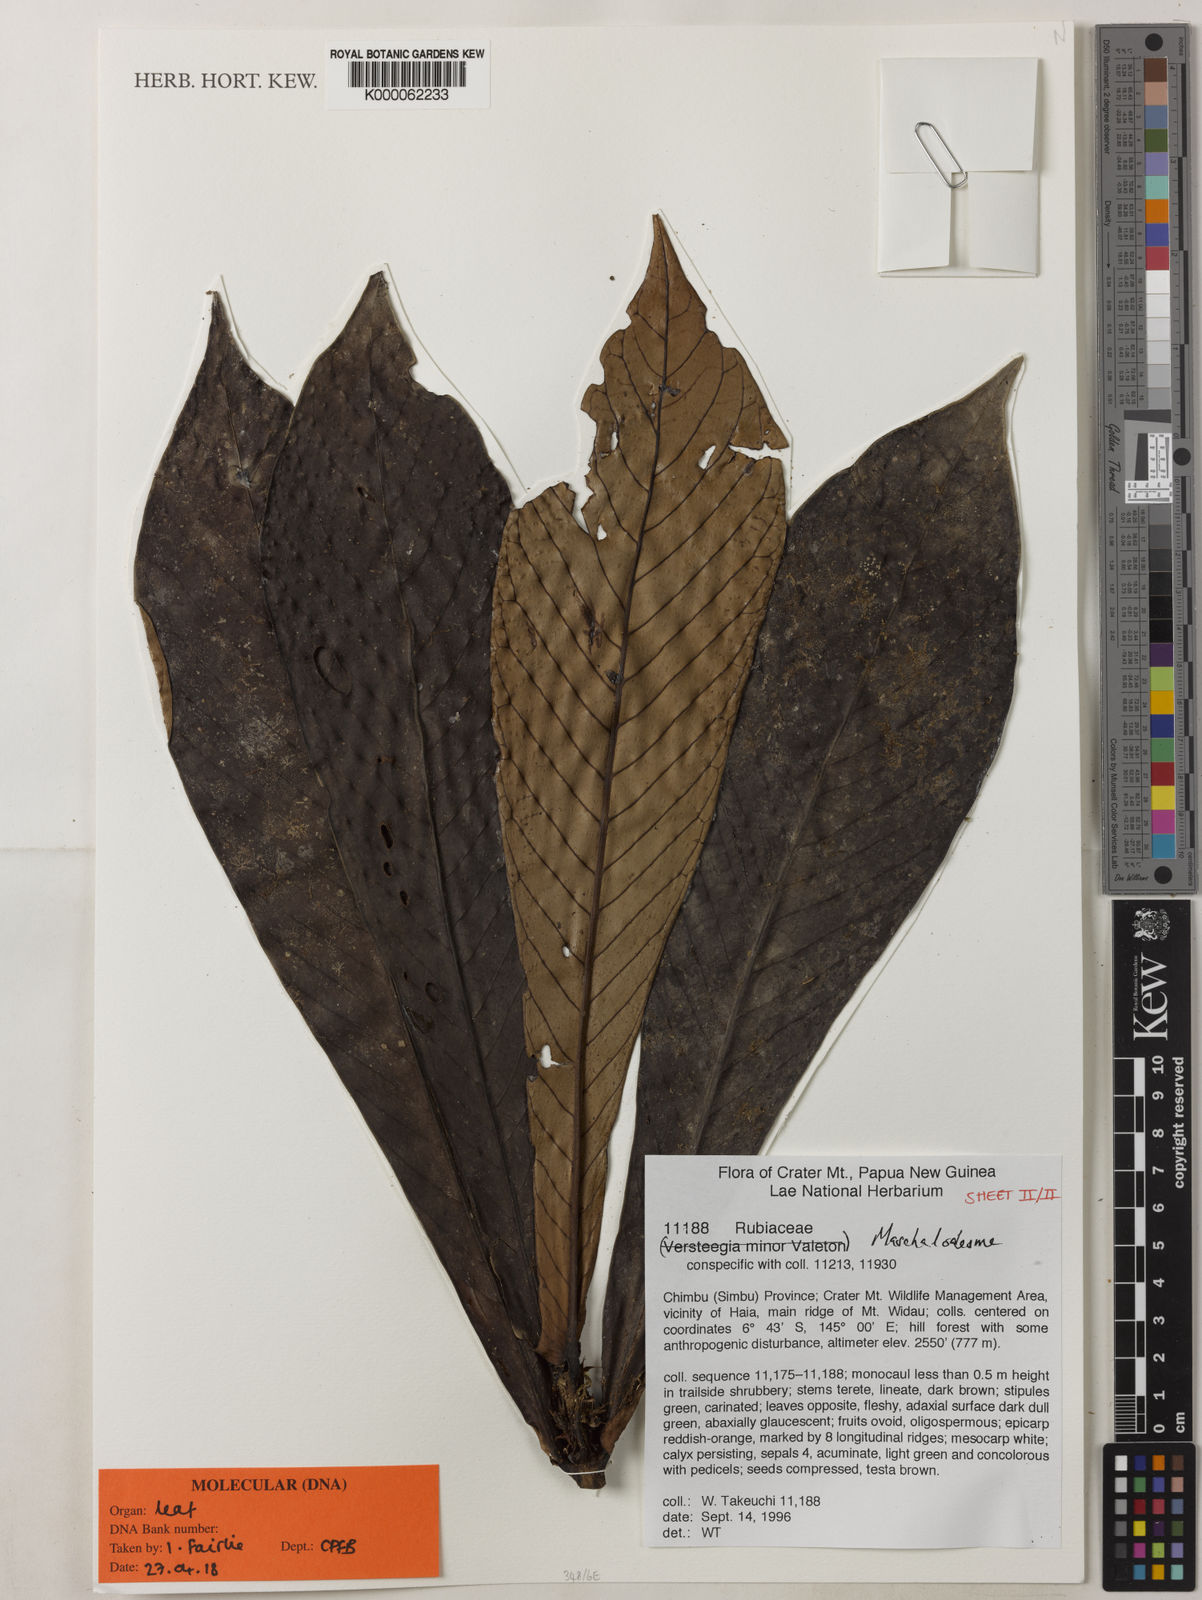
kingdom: Plantae
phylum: Tracheophyta
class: Magnoliopsida
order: Gentianales
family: Rubiaceae
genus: Maschalodesme
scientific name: Maschalodesme
